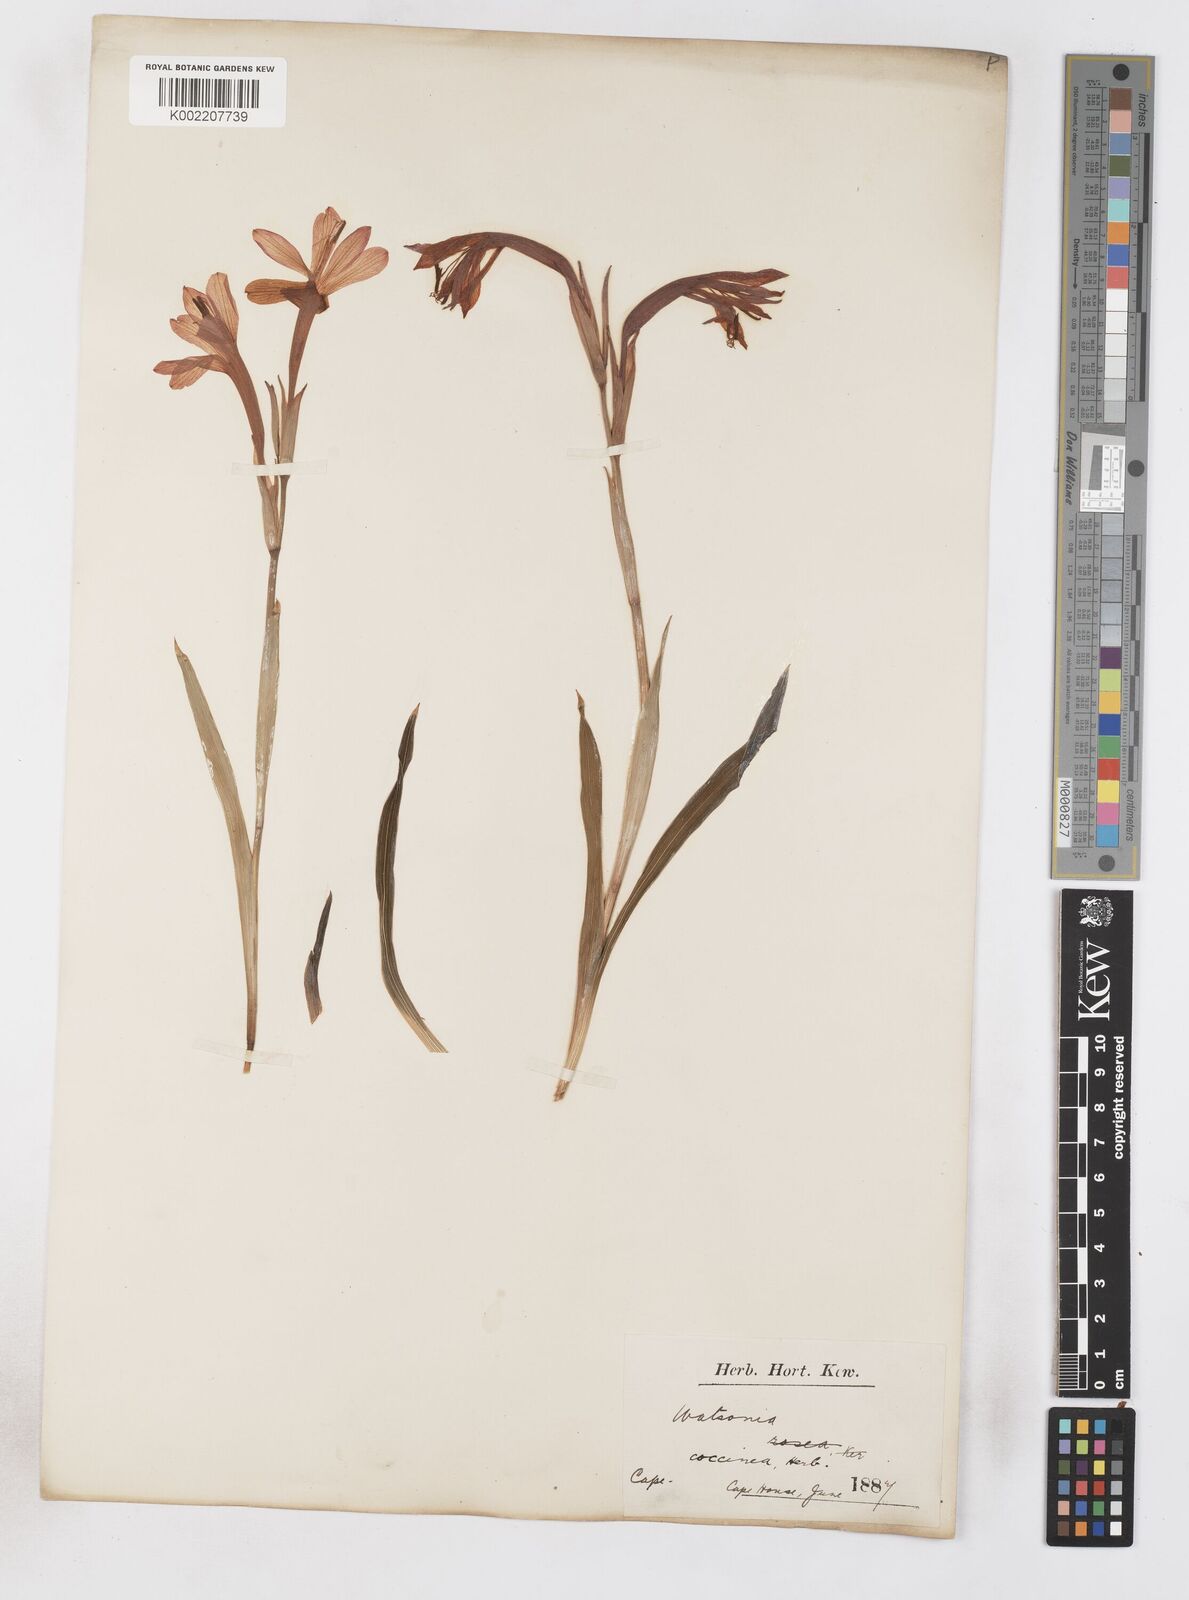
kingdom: Plantae
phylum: Tracheophyta
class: Liliopsida
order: Asparagales
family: Iridaceae
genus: Watsonia
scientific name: Watsonia coccinea
